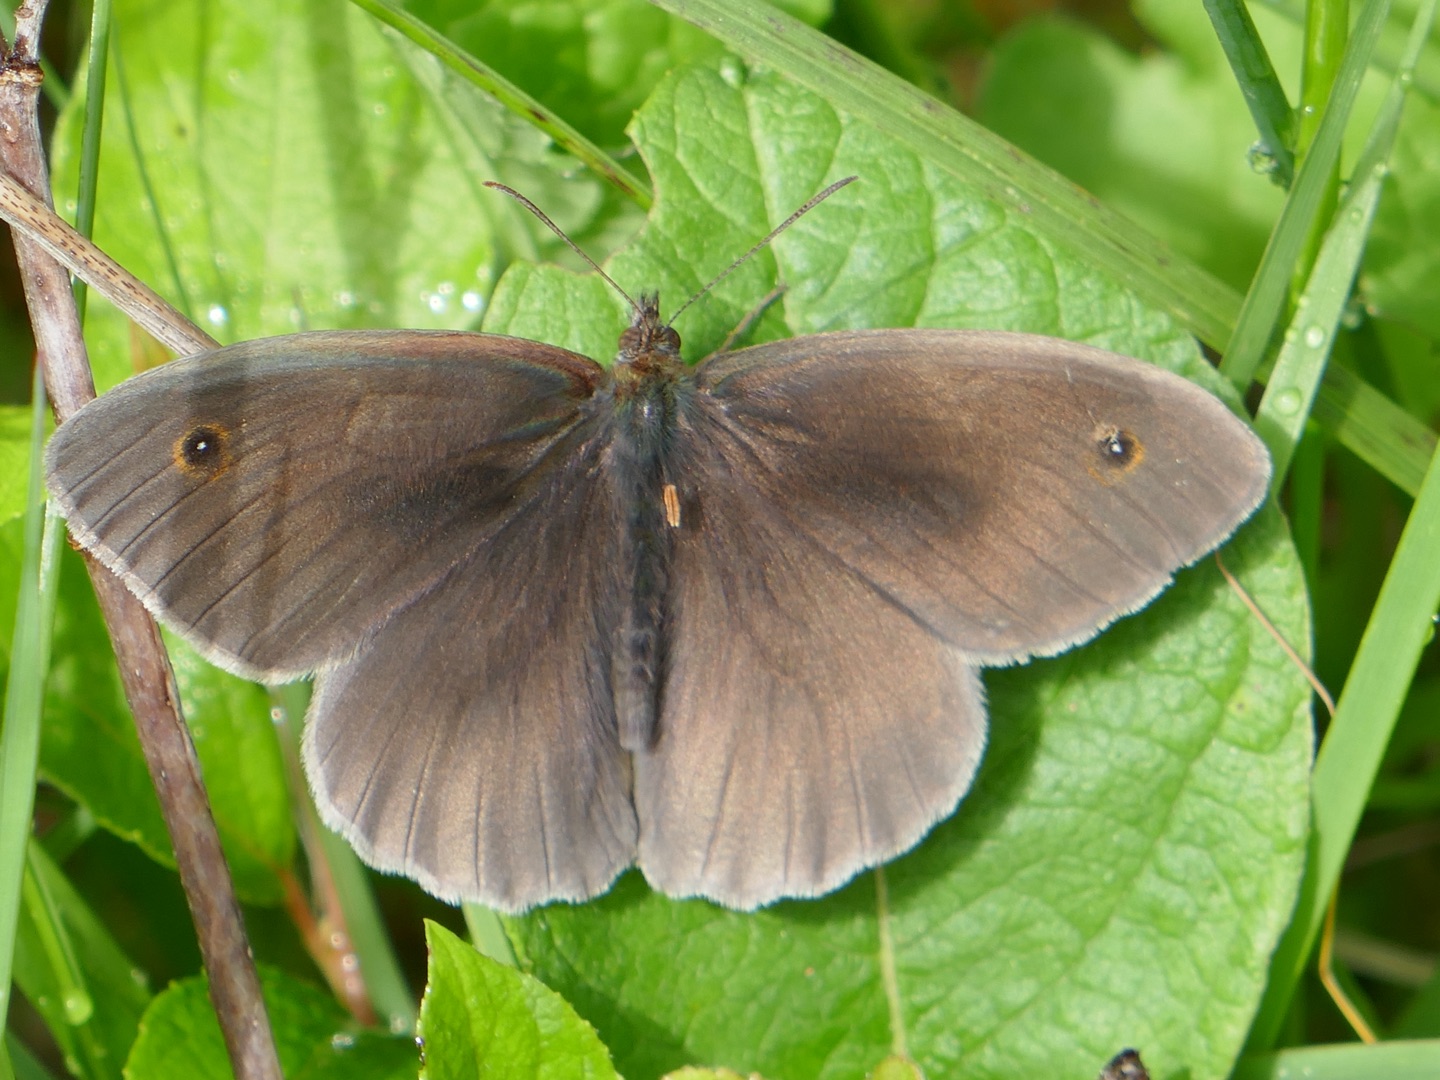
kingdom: Animalia
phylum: Arthropoda
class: Insecta
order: Lepidoptera
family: Nymphalidae
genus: Maniola
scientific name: Maniola jurtina
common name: Græsrandøje
